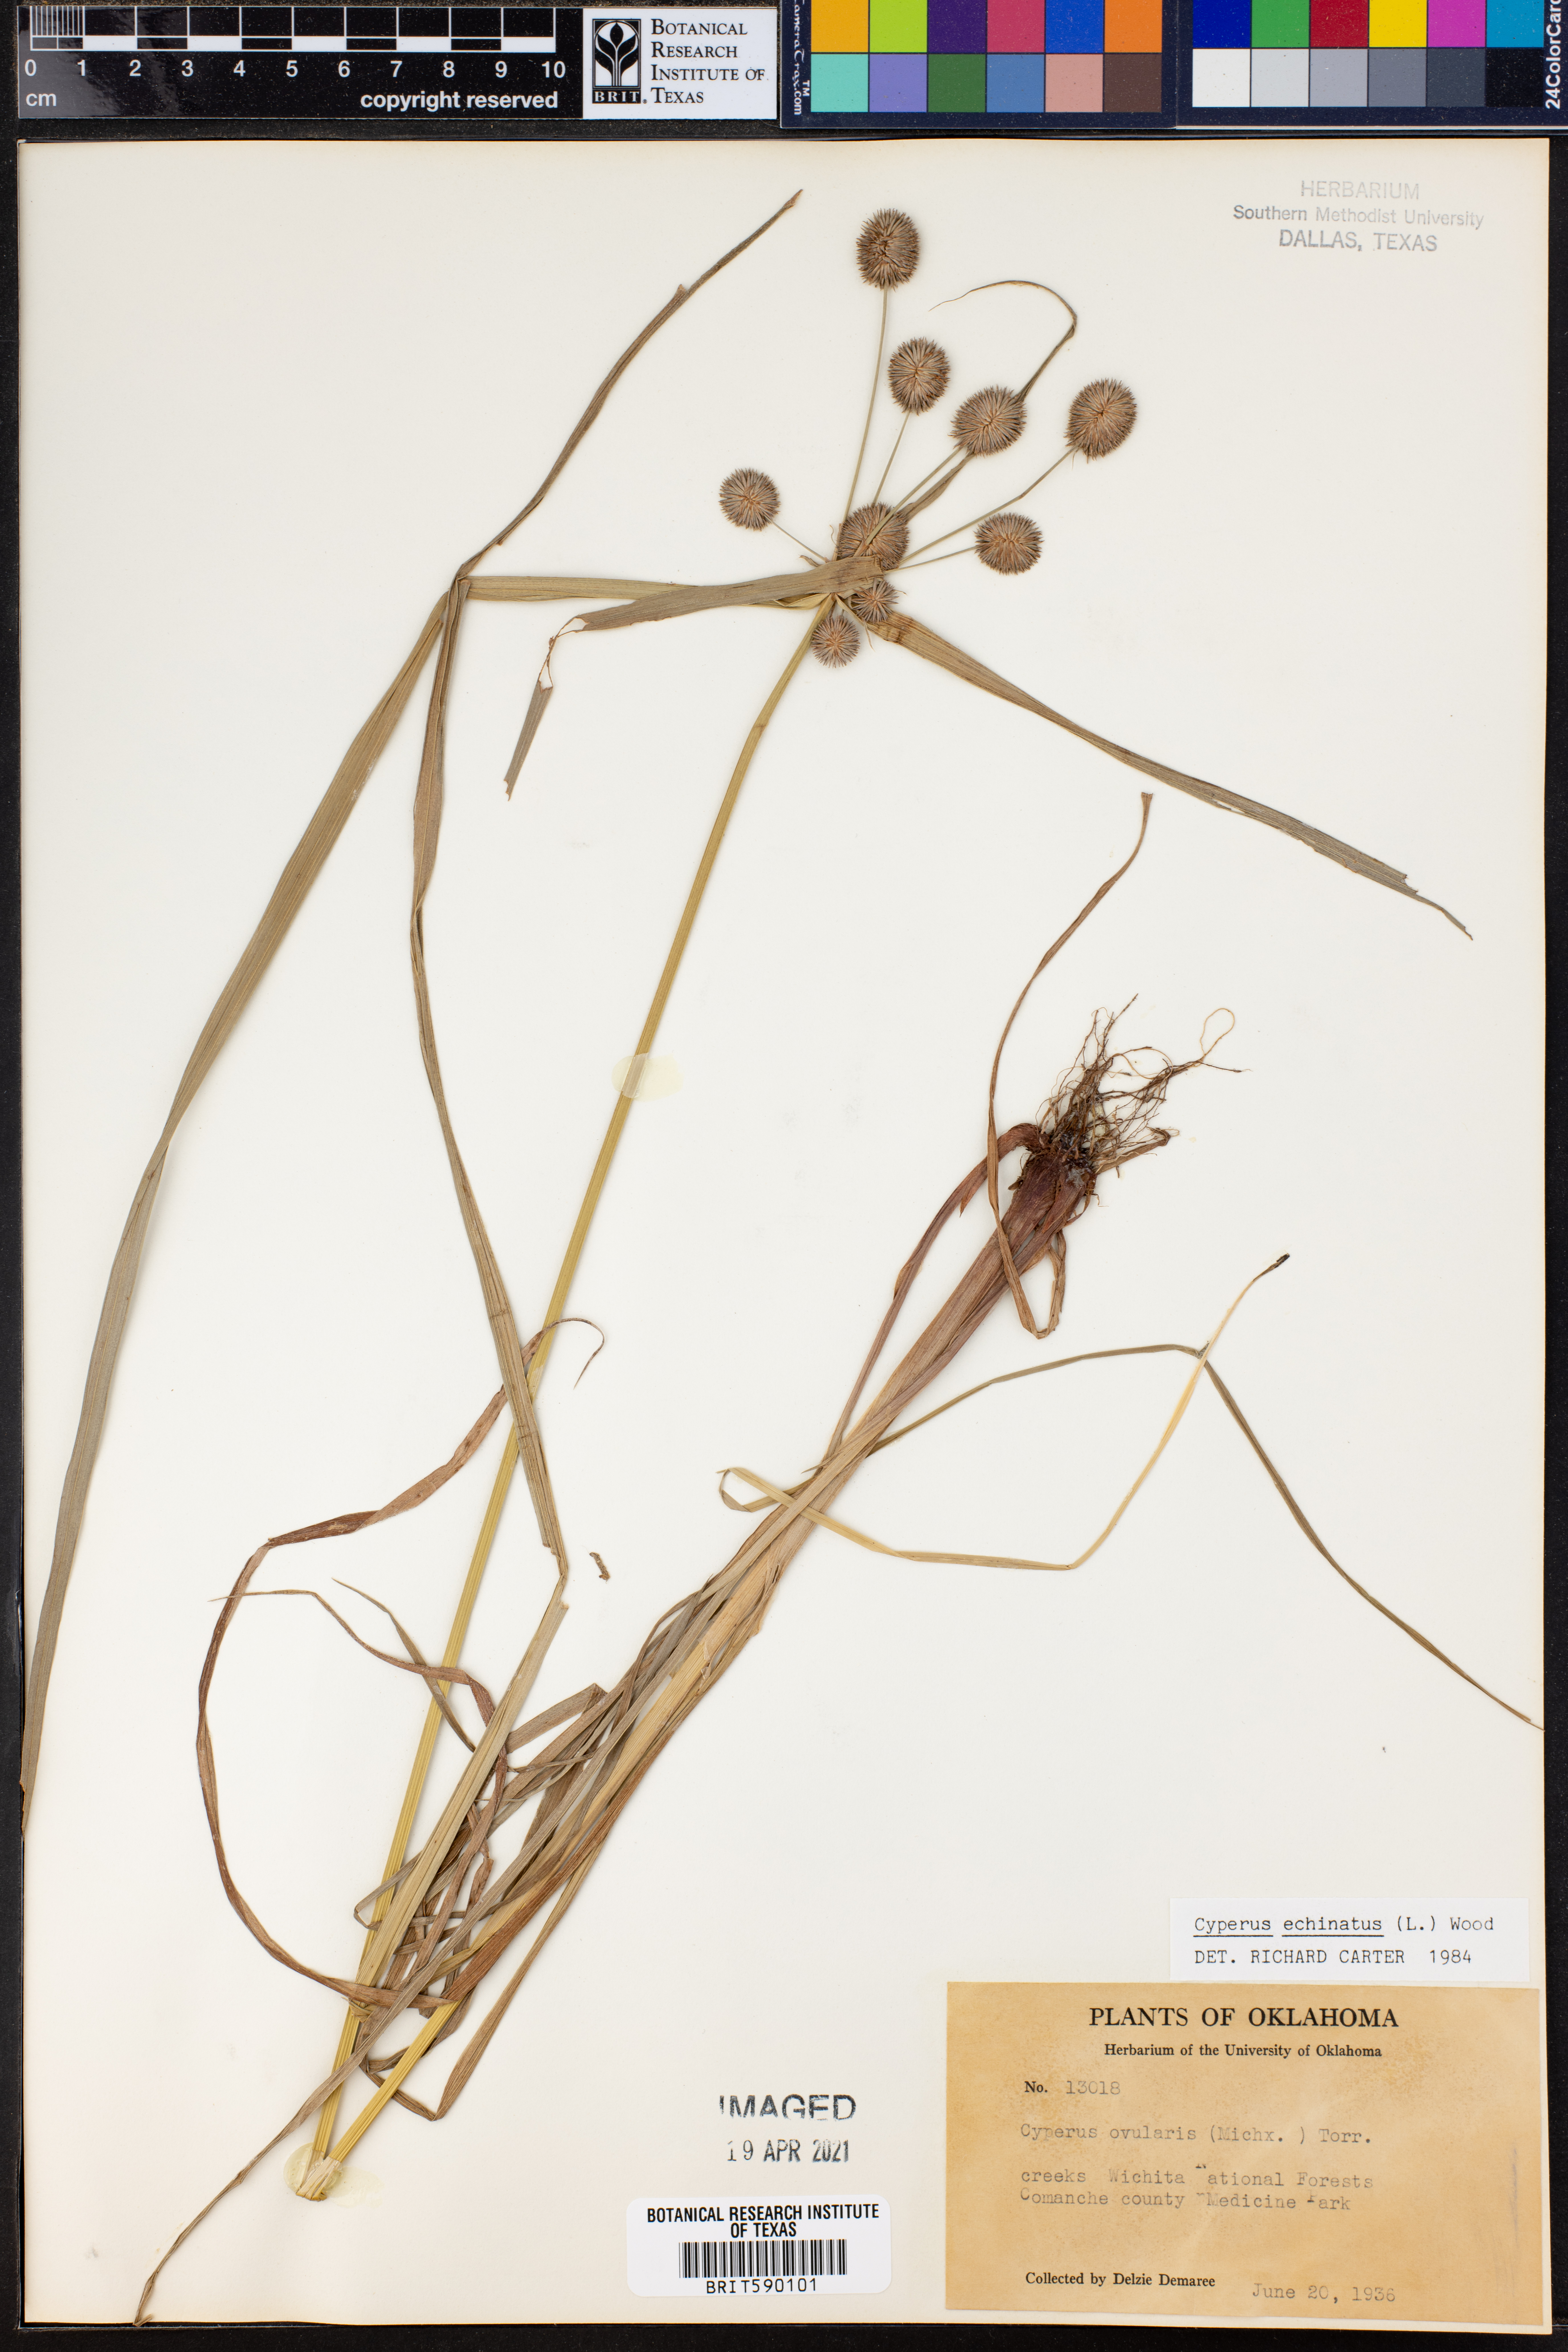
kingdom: Plantae
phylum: Tracheophyta
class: Liliopsida
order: Poales
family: Cyperaceae
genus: Cyperus
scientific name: Cyperus echinatus
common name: Teasel sedge
